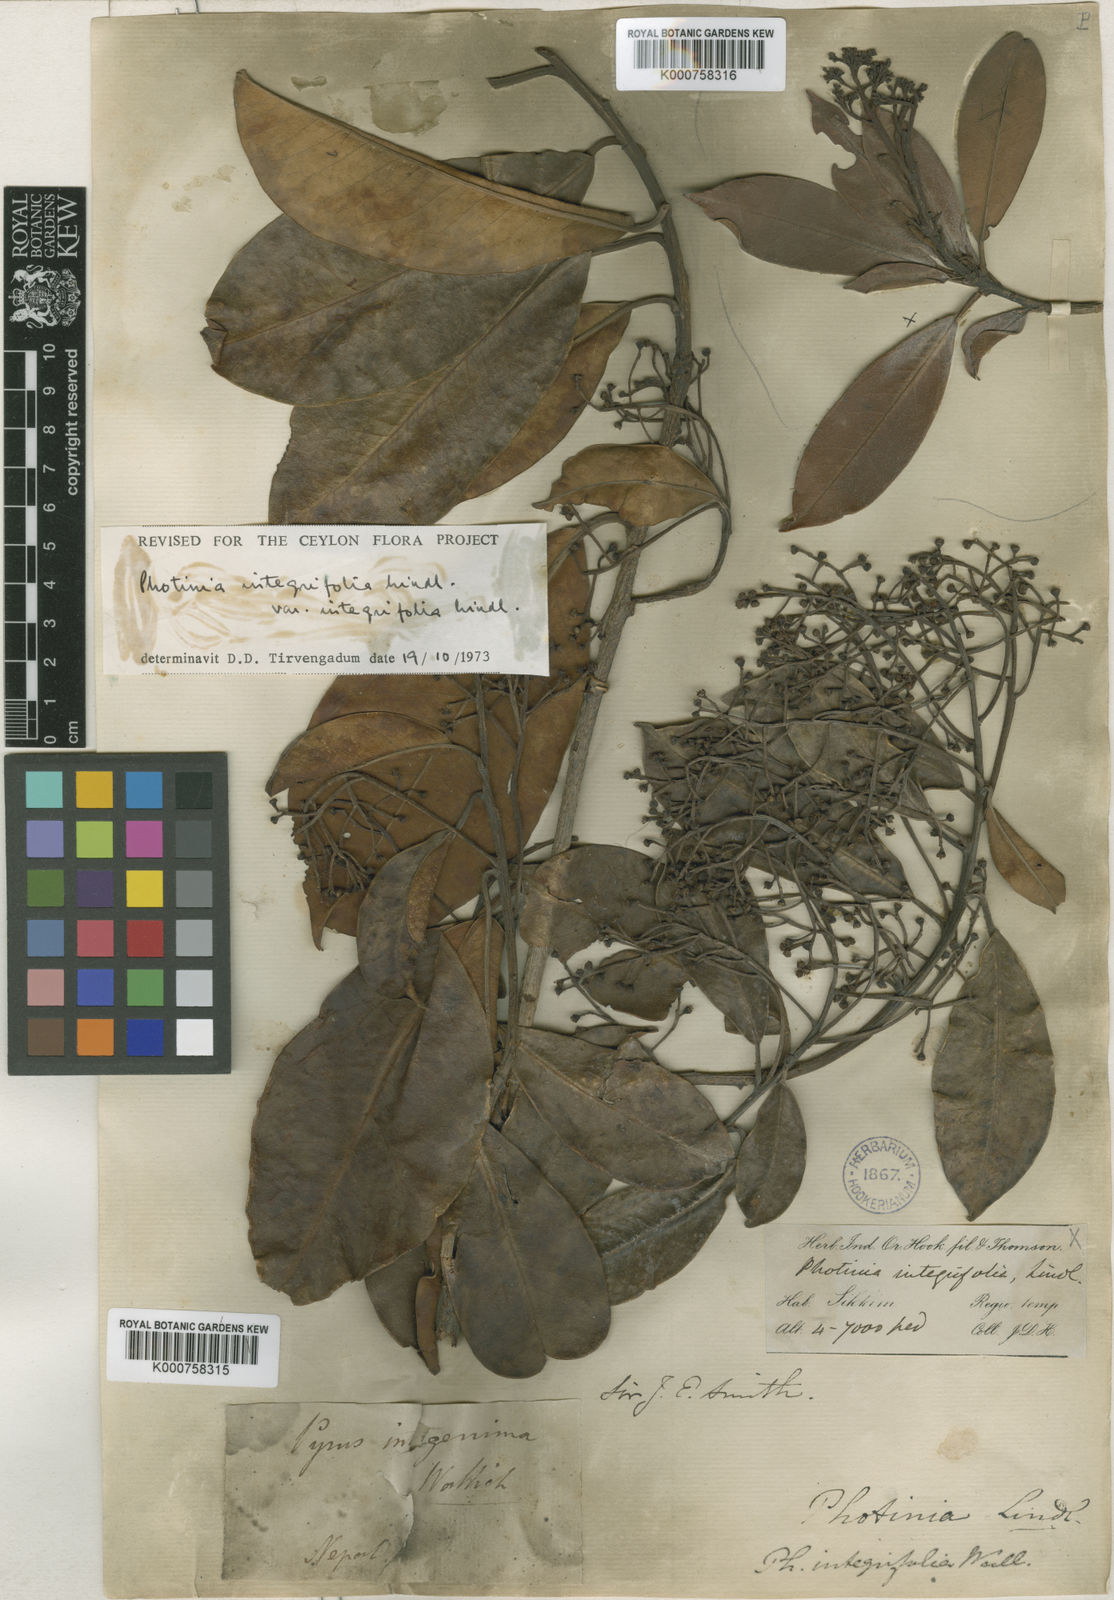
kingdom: Plantae
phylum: Tracheophyta
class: Magnoliopsida
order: Rosales
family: Rosaceae
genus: Photinia
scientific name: Photinia integrifolia
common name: Himalayan chokeberry
